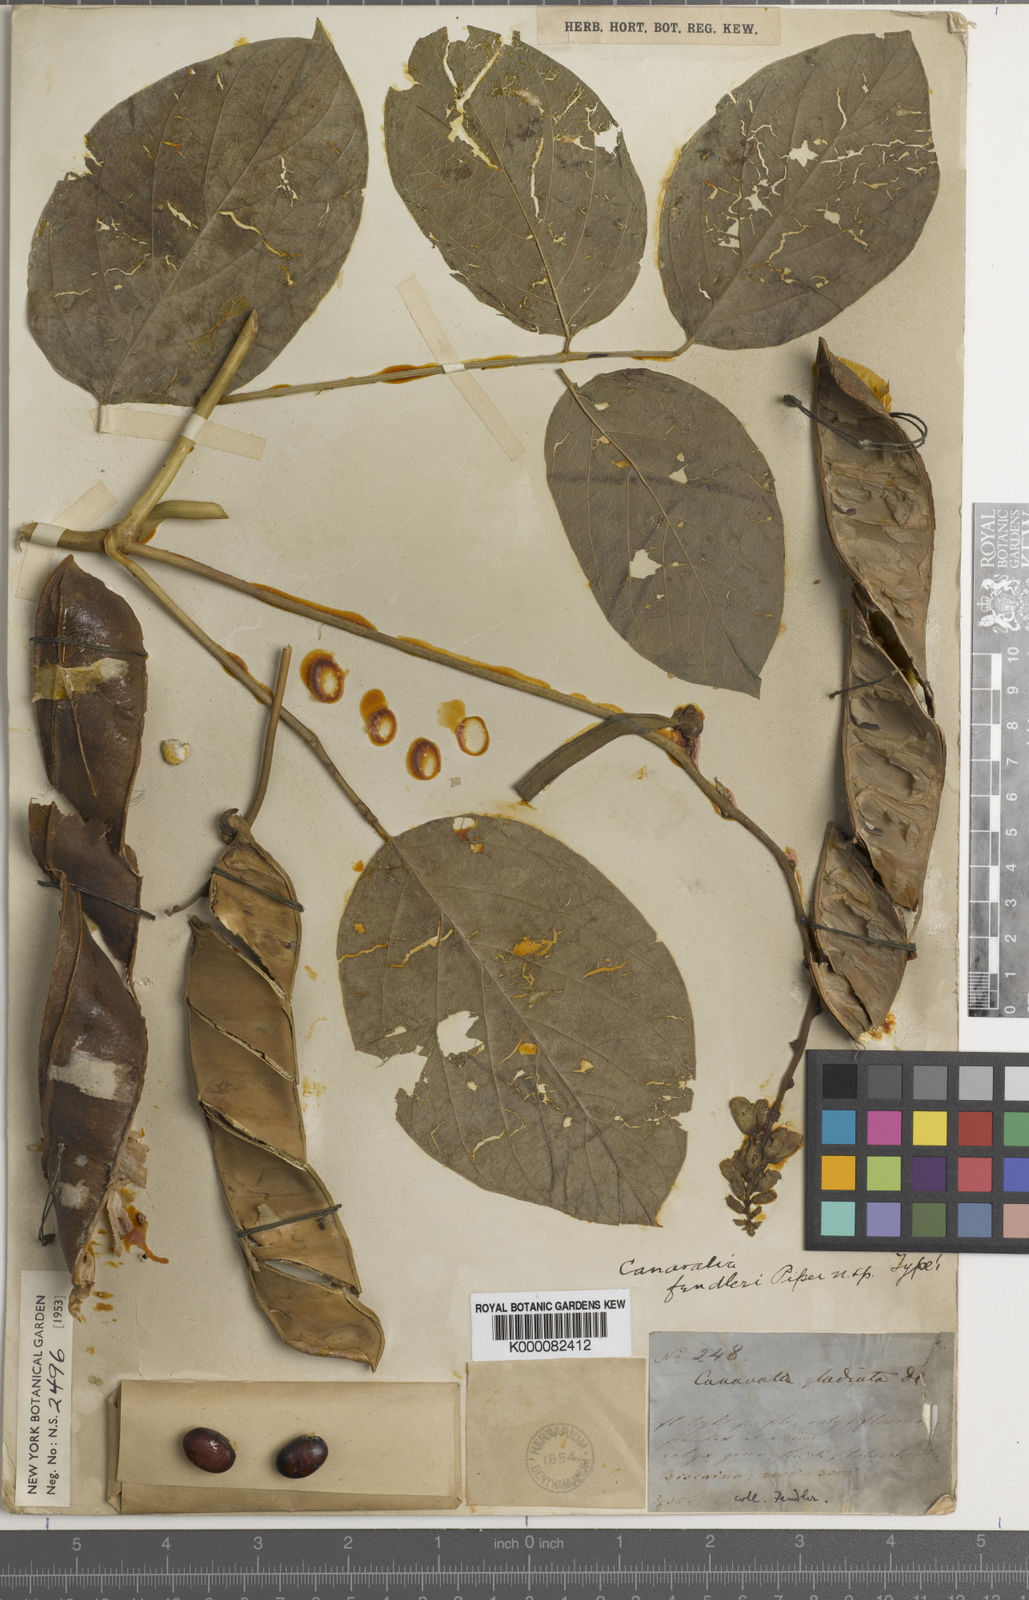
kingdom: Plantae
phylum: Tracheophyta
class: Magnoliopsida
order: Fabales
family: Fabaceae
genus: Canavalia
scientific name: Canavalia brasiliensis
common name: Barbicou-bean
